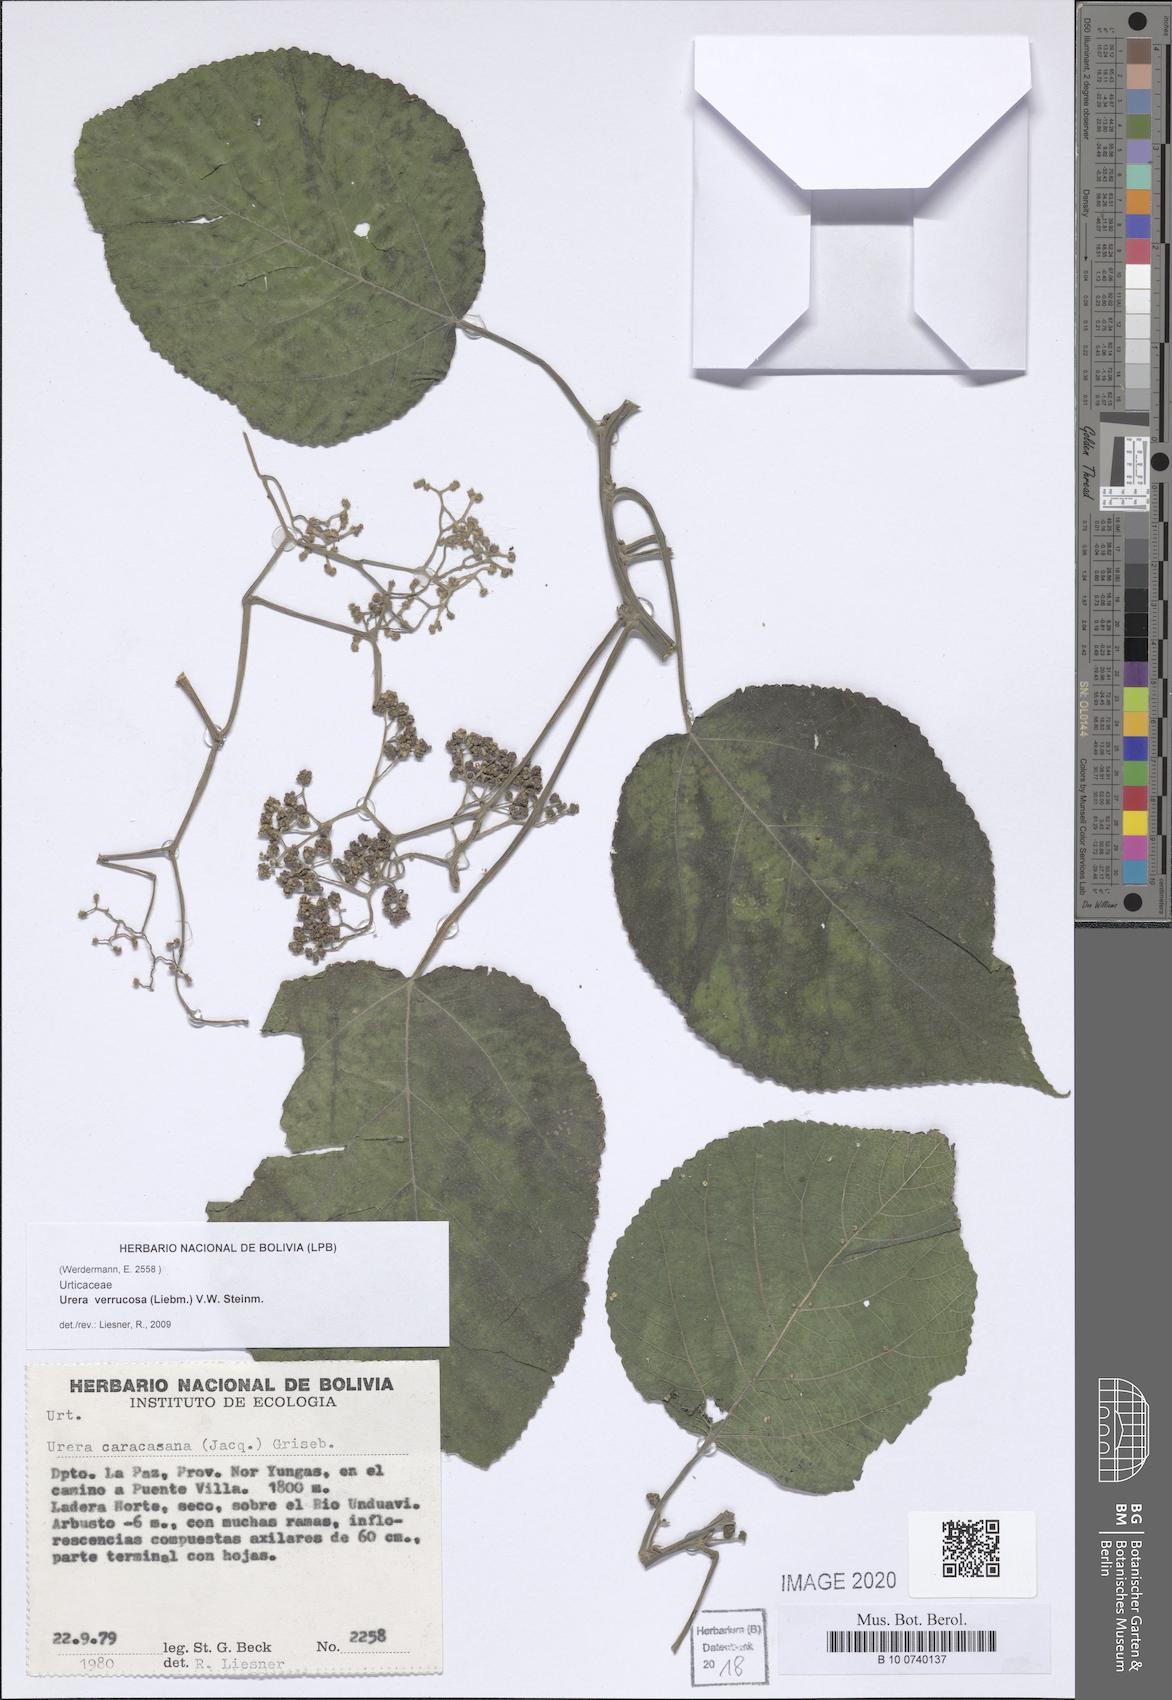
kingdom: Plantae
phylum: Tracheophyta
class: Magnoliopsida
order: Rosales
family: Urticaceae
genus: Urera
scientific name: Urera verrucosa
